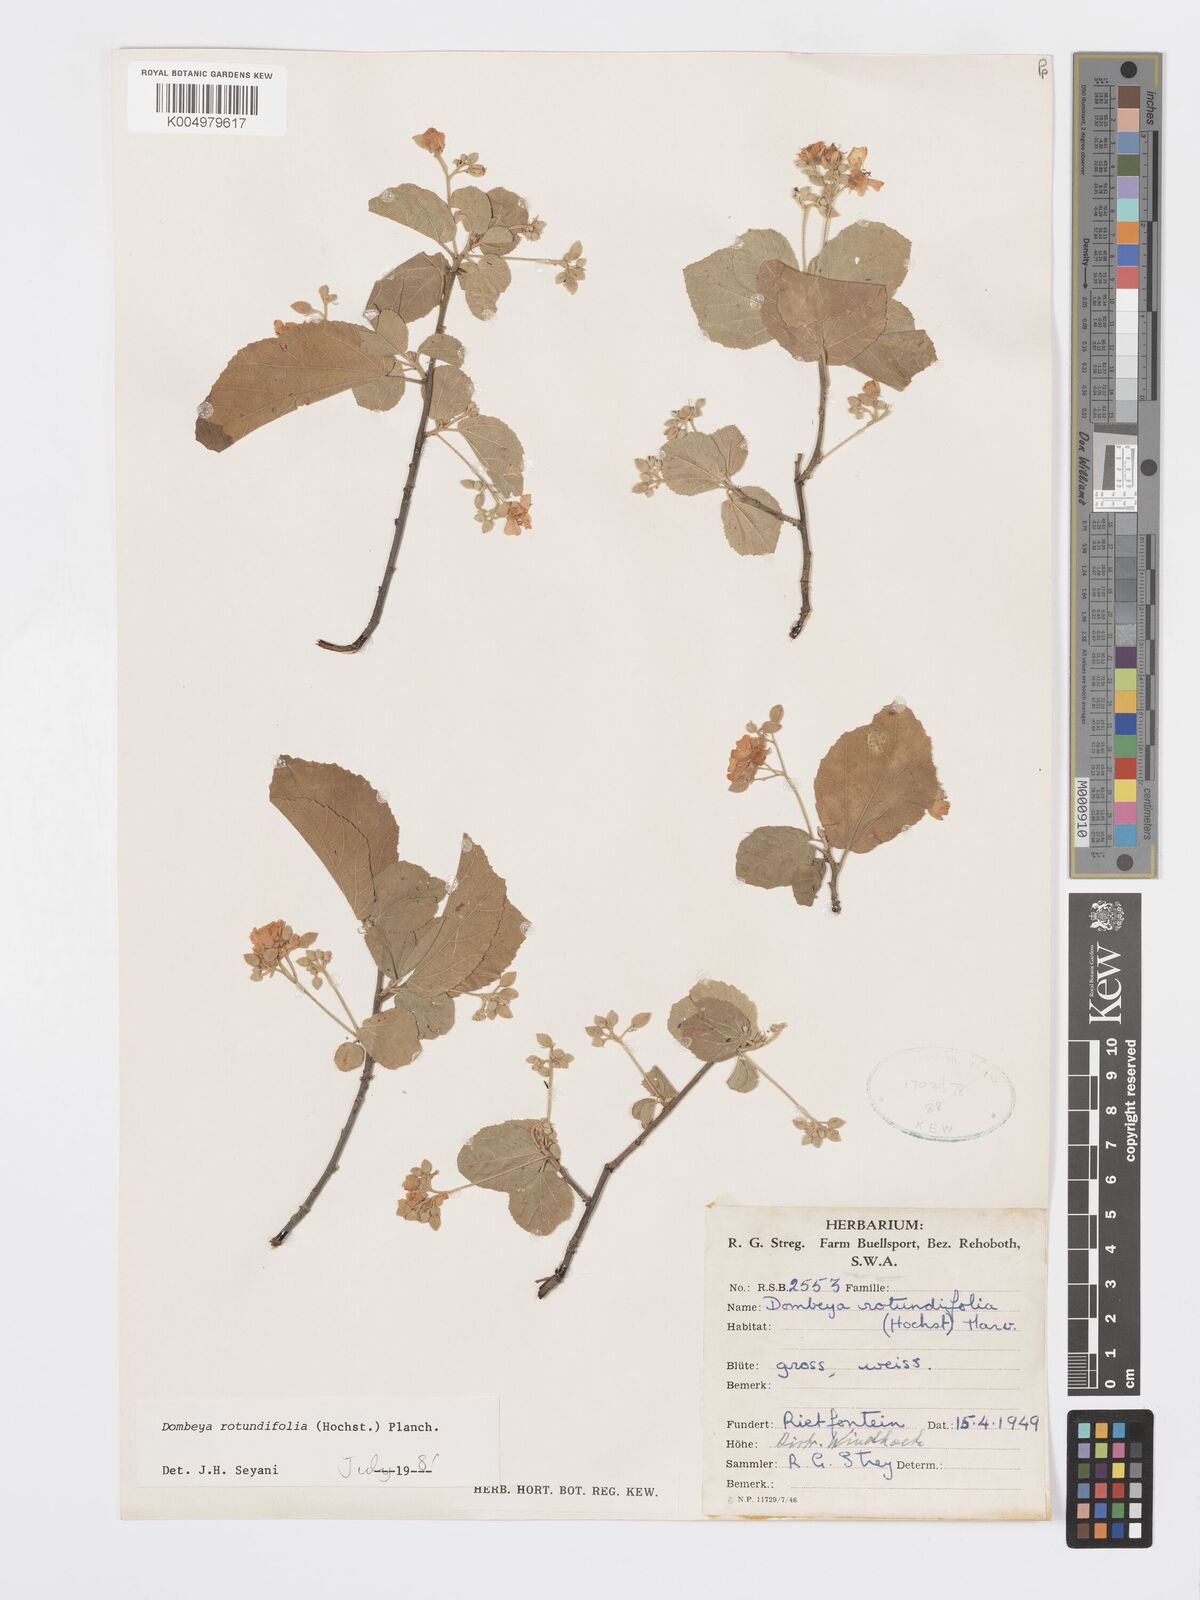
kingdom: Plantae
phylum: Tracheophyta
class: Magnoliopsida
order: Malvales
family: Malvaceae
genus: Dombeya
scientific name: Dombeya rotundifolia
